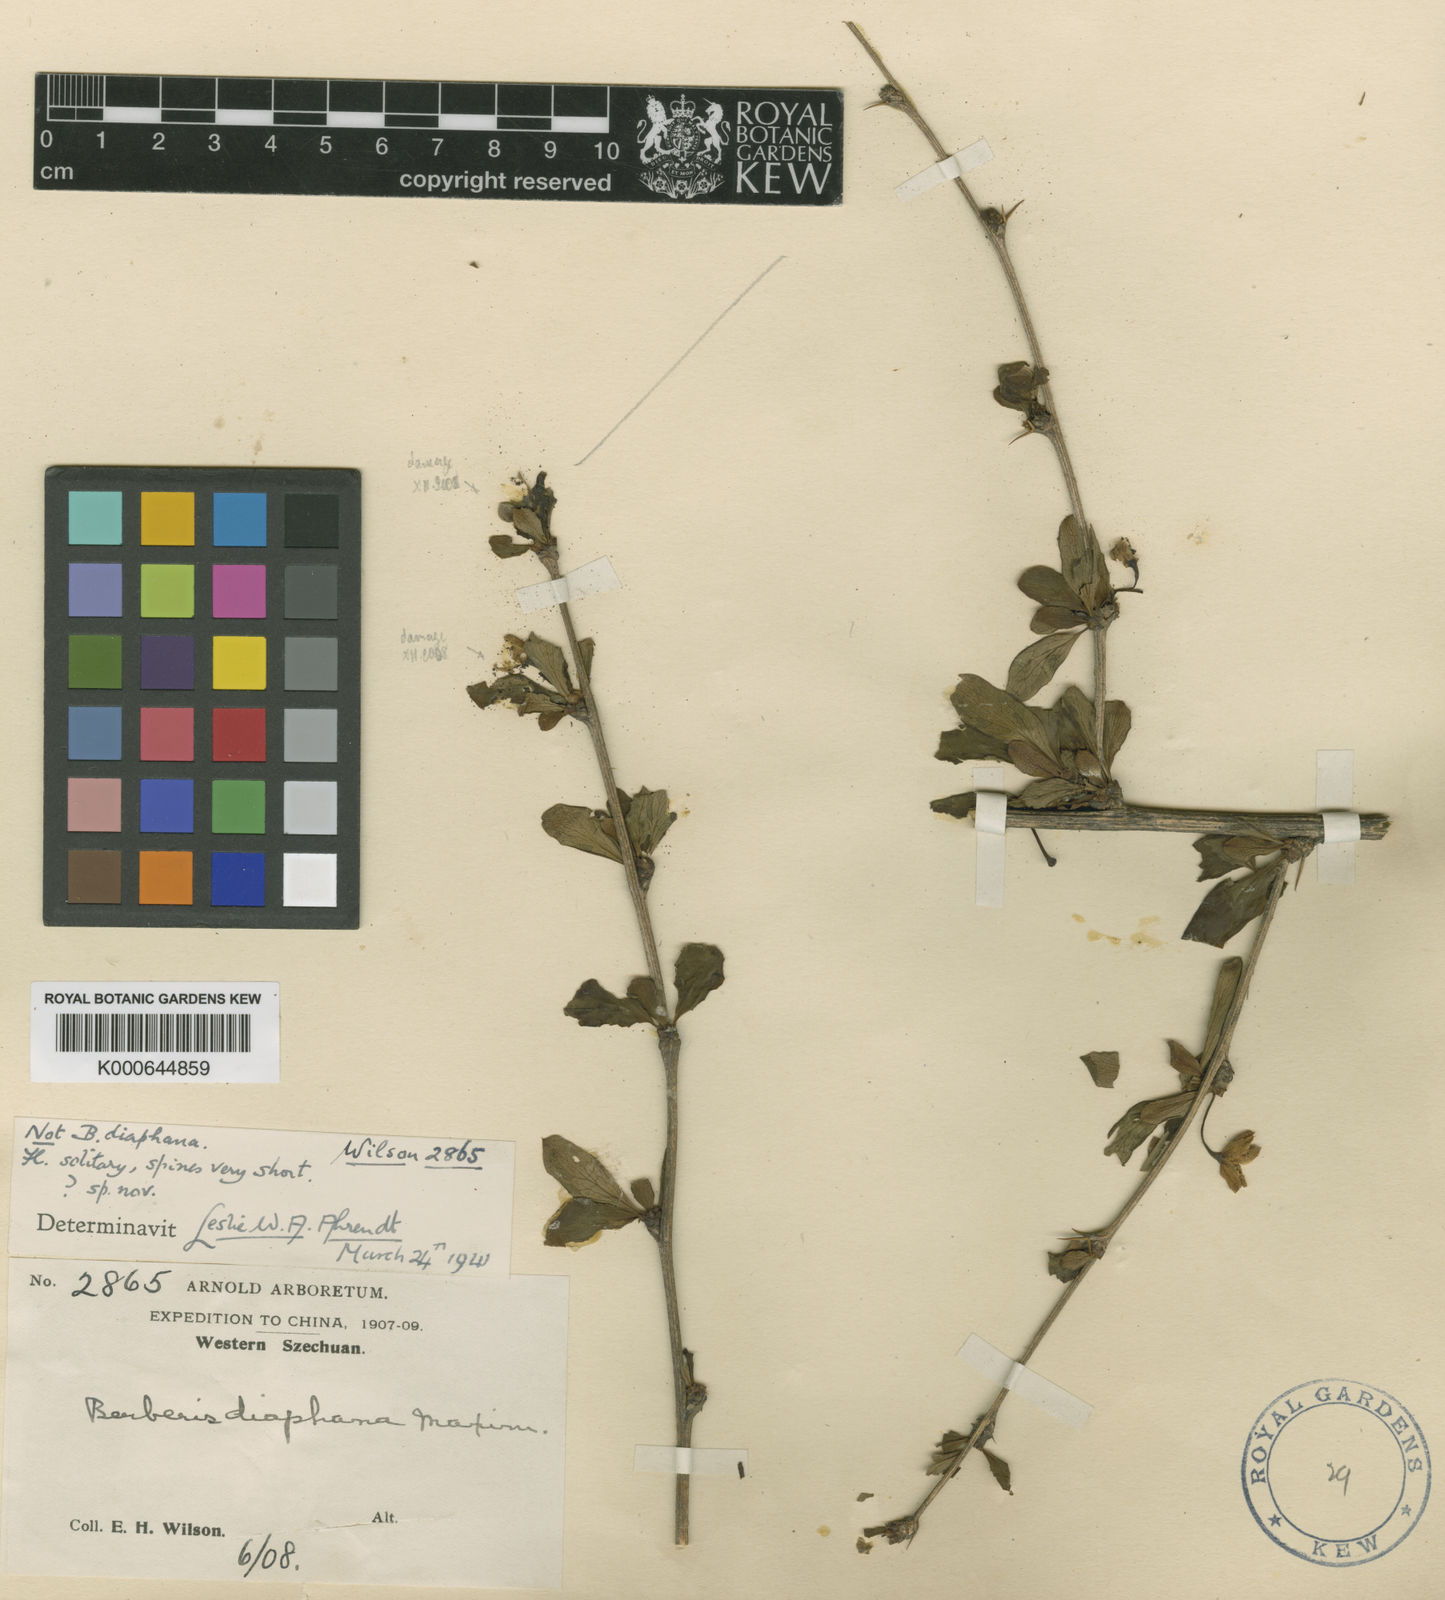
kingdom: Plantae
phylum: Tracheophyta
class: Magnoliopsida
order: Ranunculales
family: Berberidaceae
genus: Berberis
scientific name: Berberis diaphana
